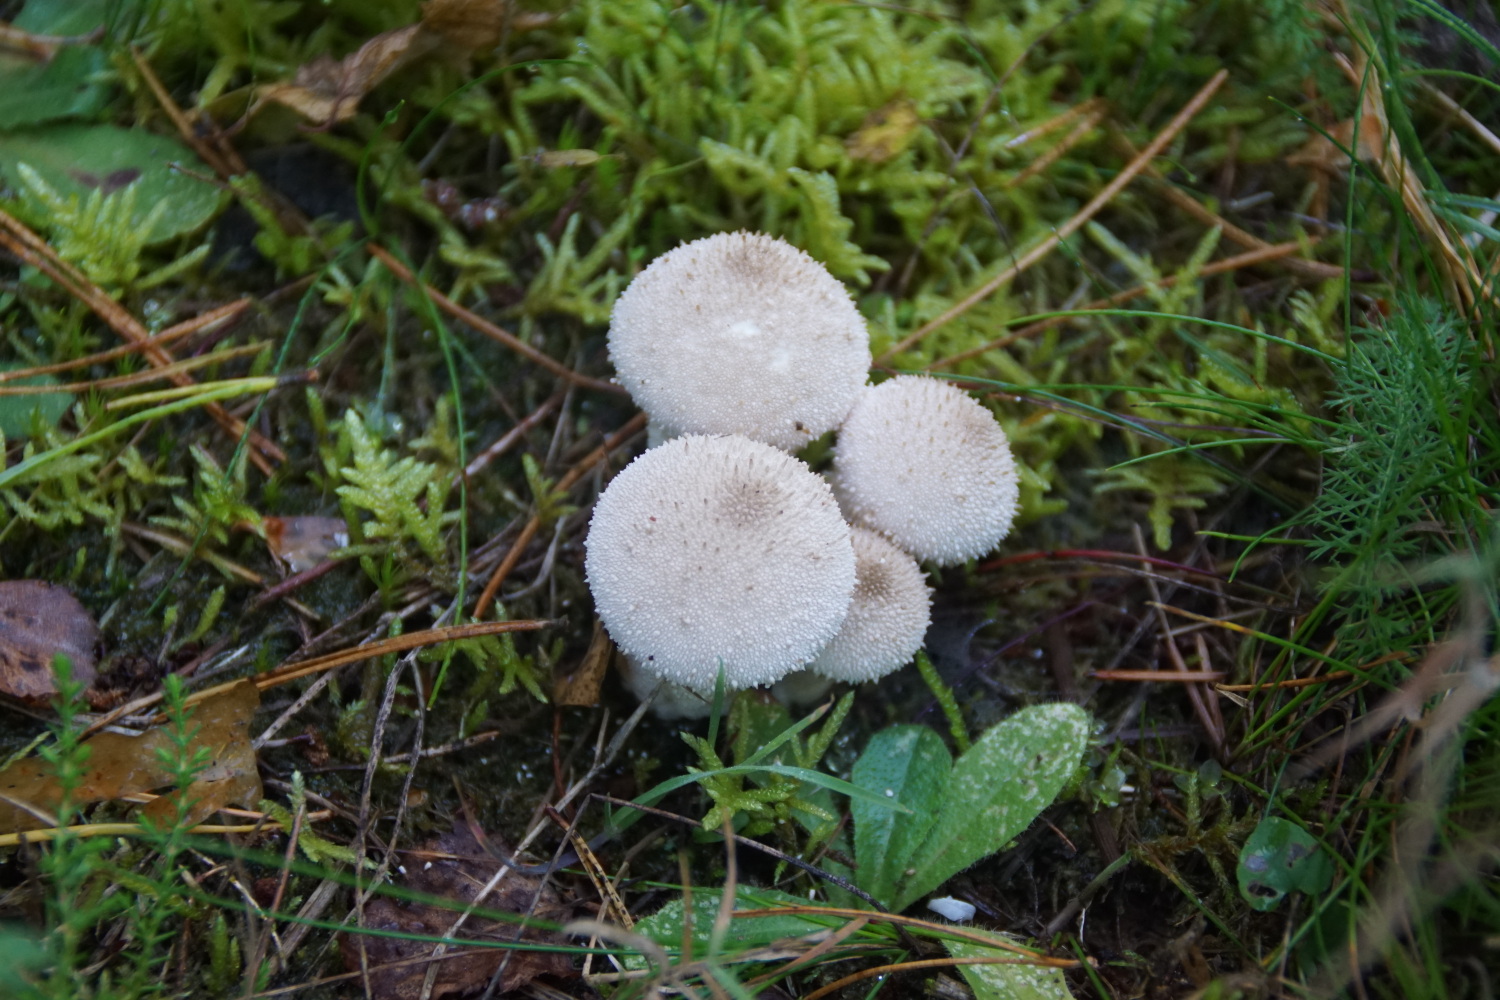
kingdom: Fungi
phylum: Basidiomycota
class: Agaricomycetes
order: Agaricales
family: Lycoperdaceae
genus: Lycoperdon
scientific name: Lycoperdon perlatum
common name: krystal-støvbold
